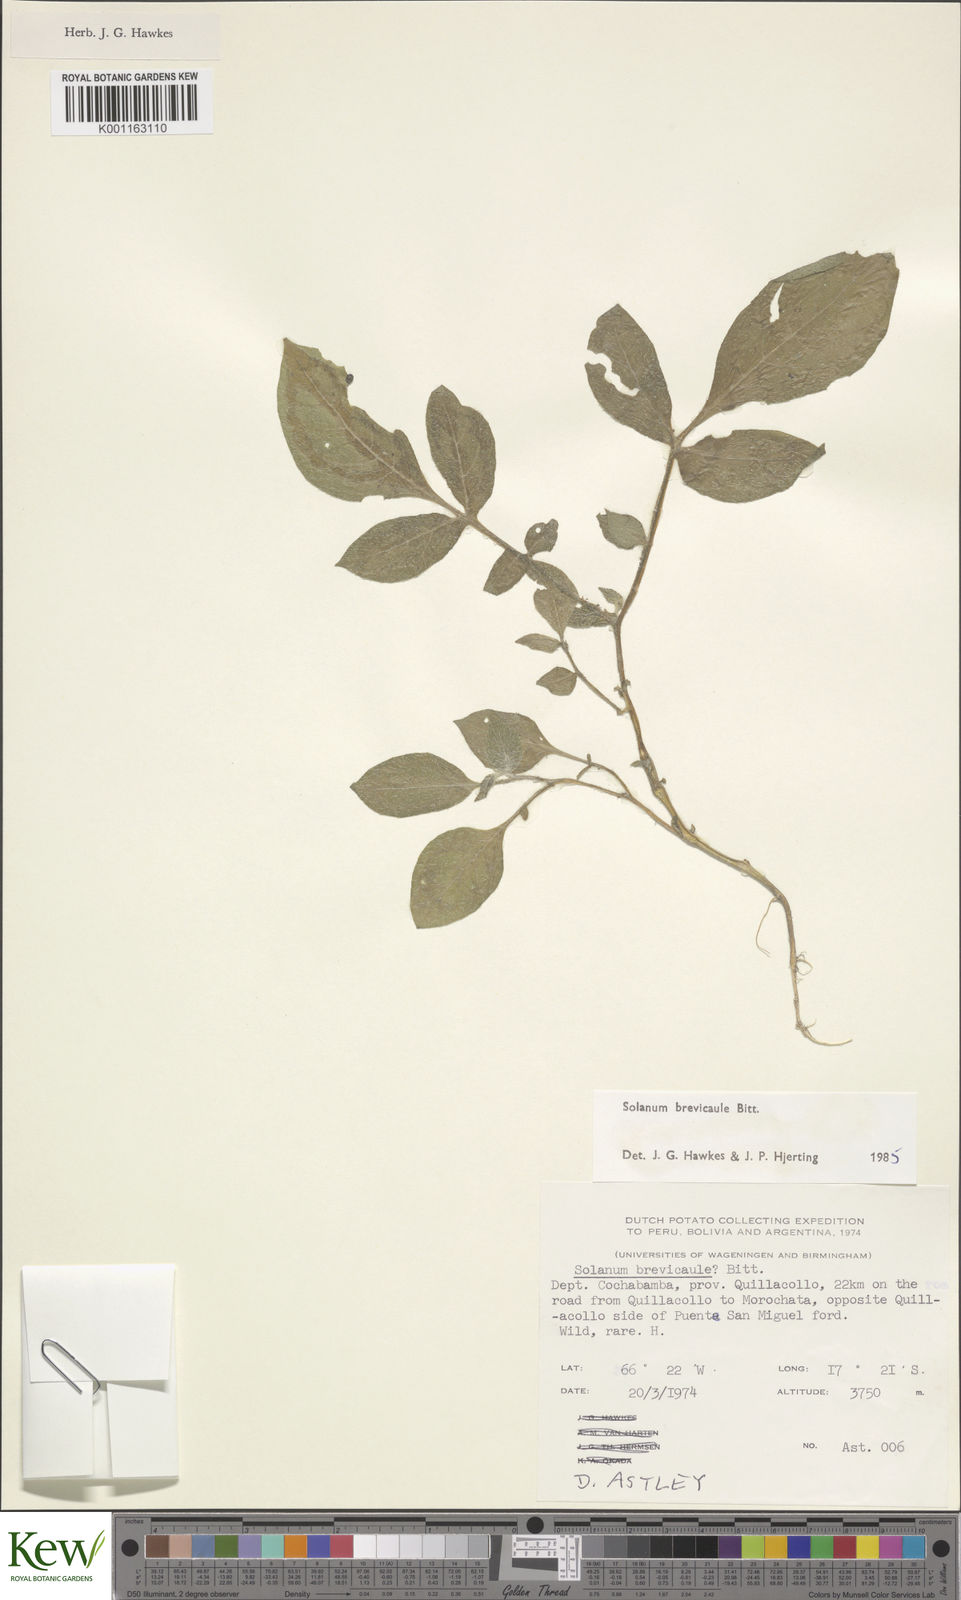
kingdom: Plantae
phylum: Tracheophyta
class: Magnoliopsida
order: Solanales
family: Solanaceae
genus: Solanum
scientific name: Solanum brevicaule
